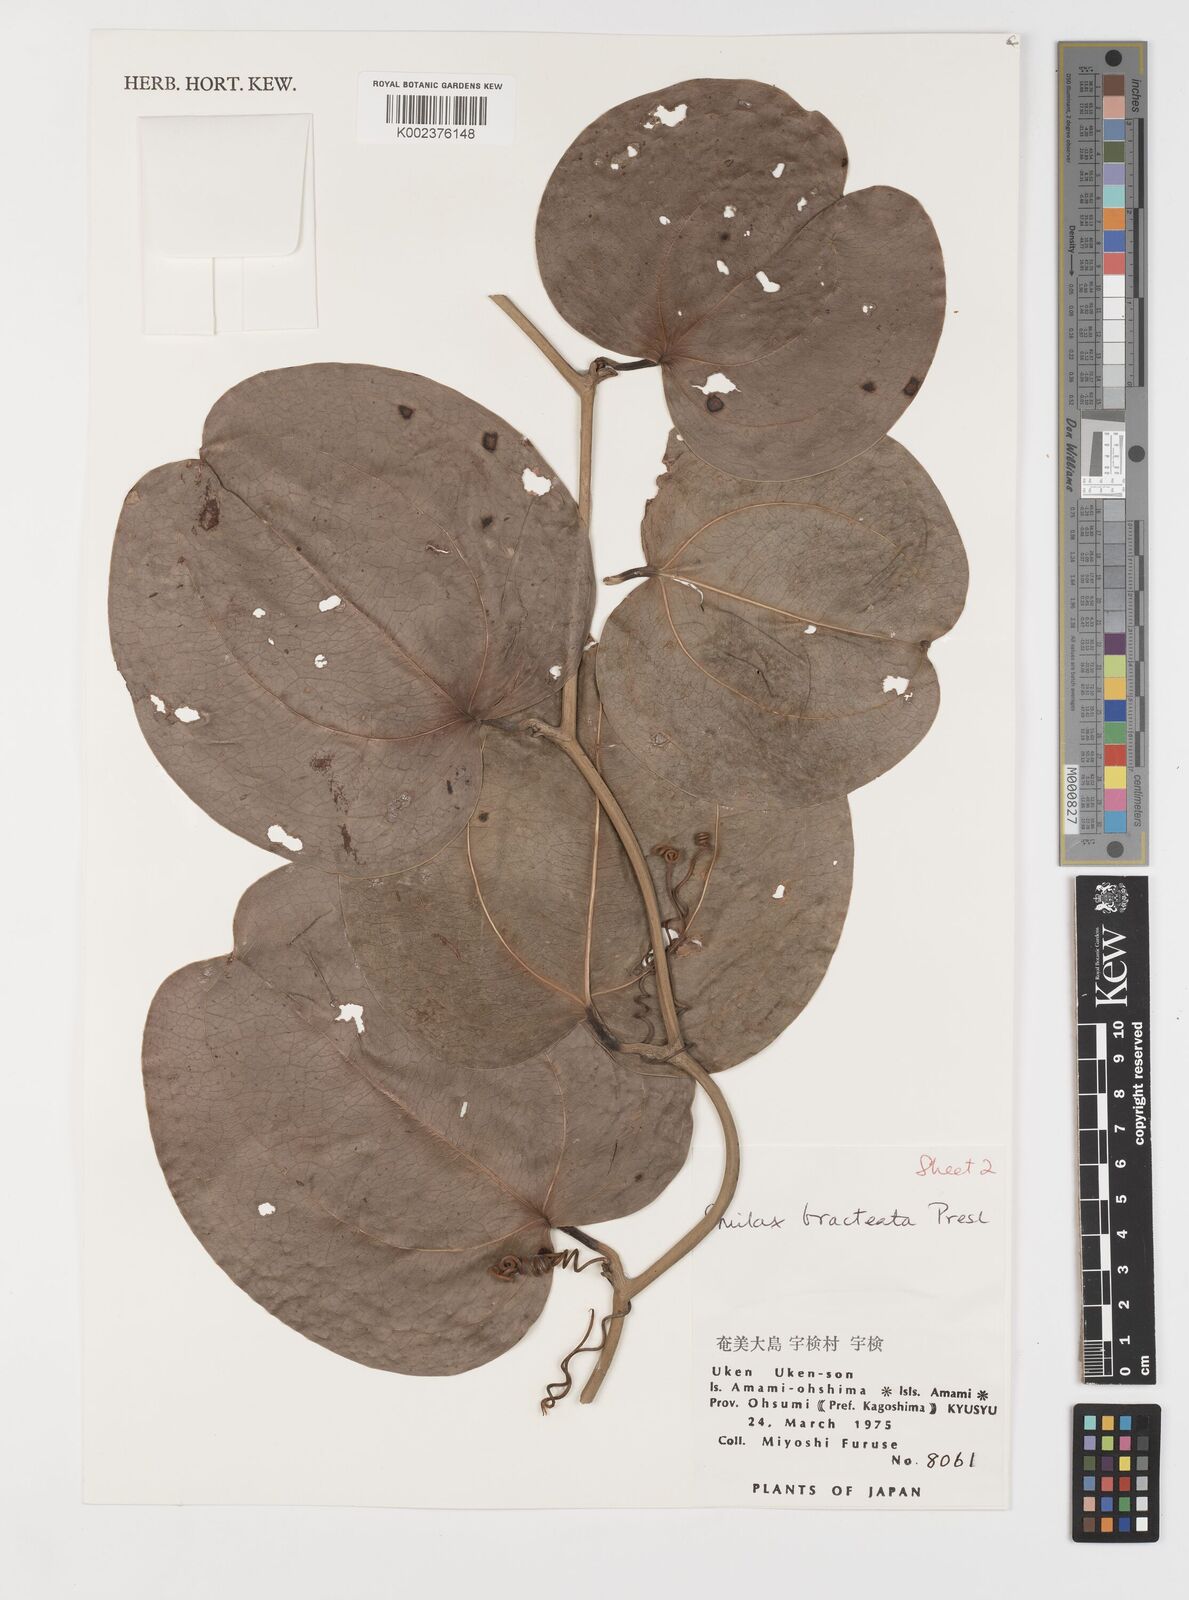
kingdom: Plantae
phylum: Tracheophyta
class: Liliopsida
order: Liliales
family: Smilacaceae
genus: Smilax
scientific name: Smilax bracteata
